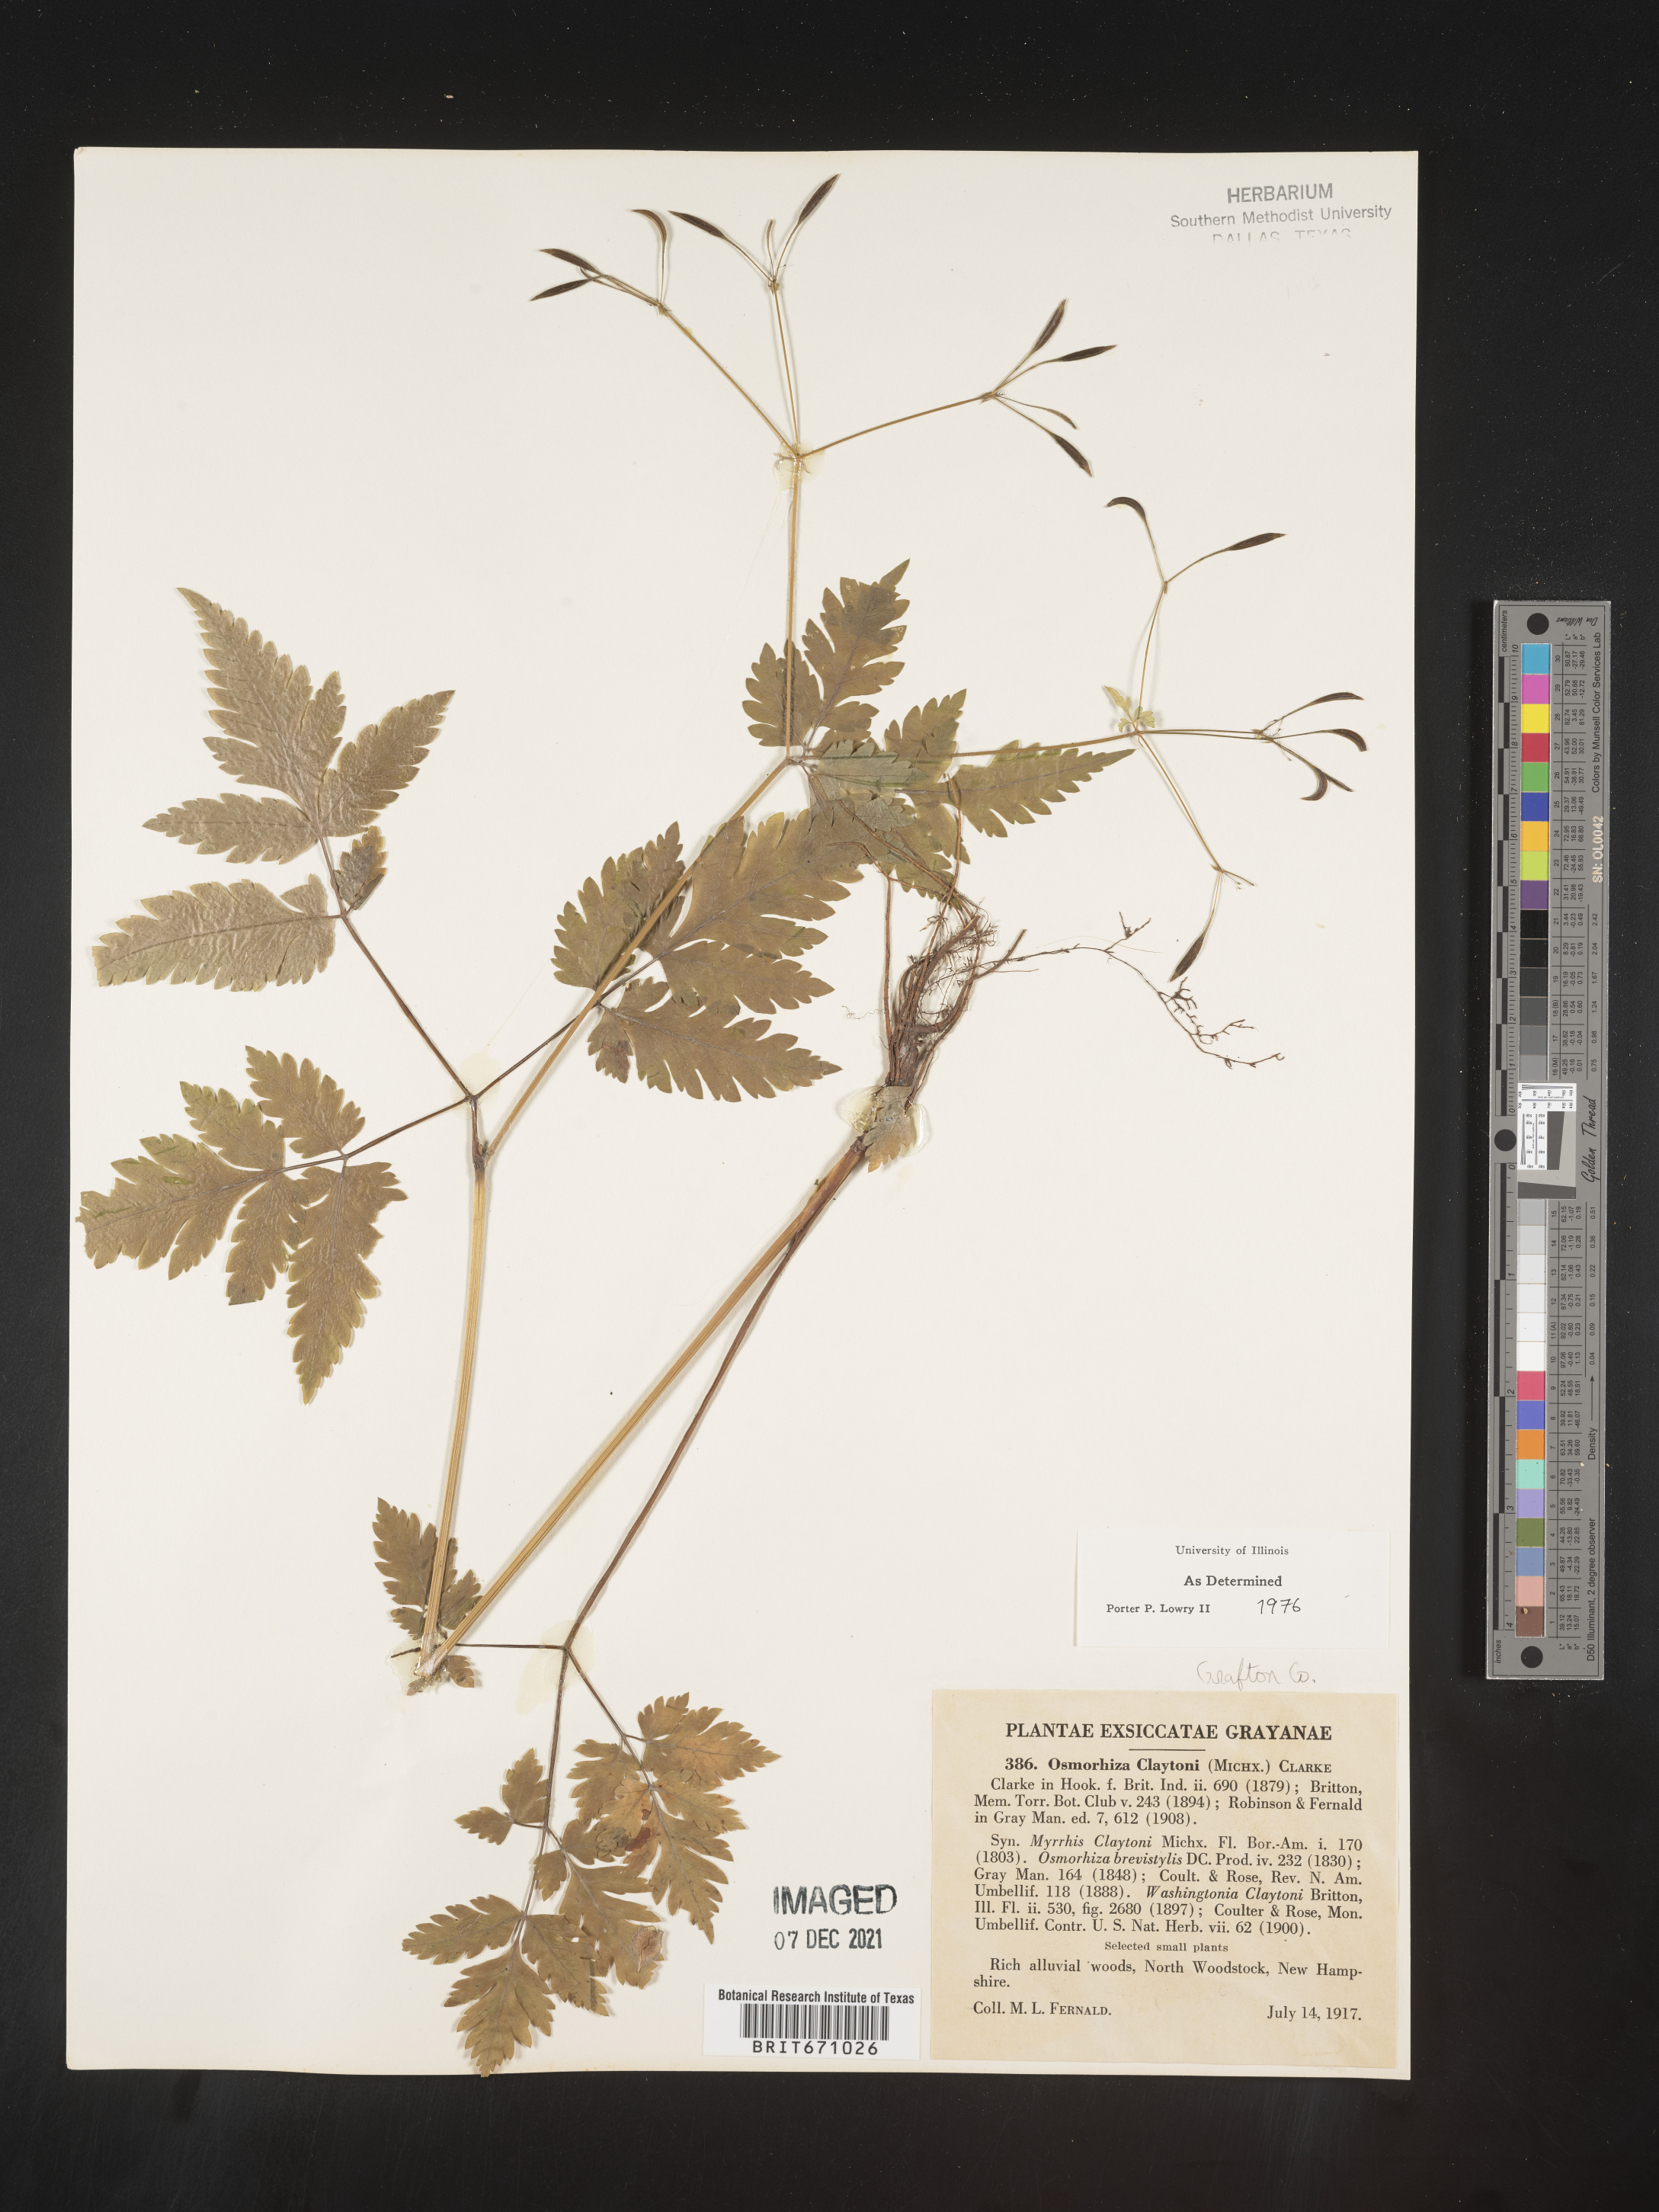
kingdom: Plantae
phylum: Tracheophyta
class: Magnoliopsida
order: Apiales
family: Apiaceae
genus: Osmorhiza
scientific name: Osmorhiza claytonii
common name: Hairy sweet cicely
